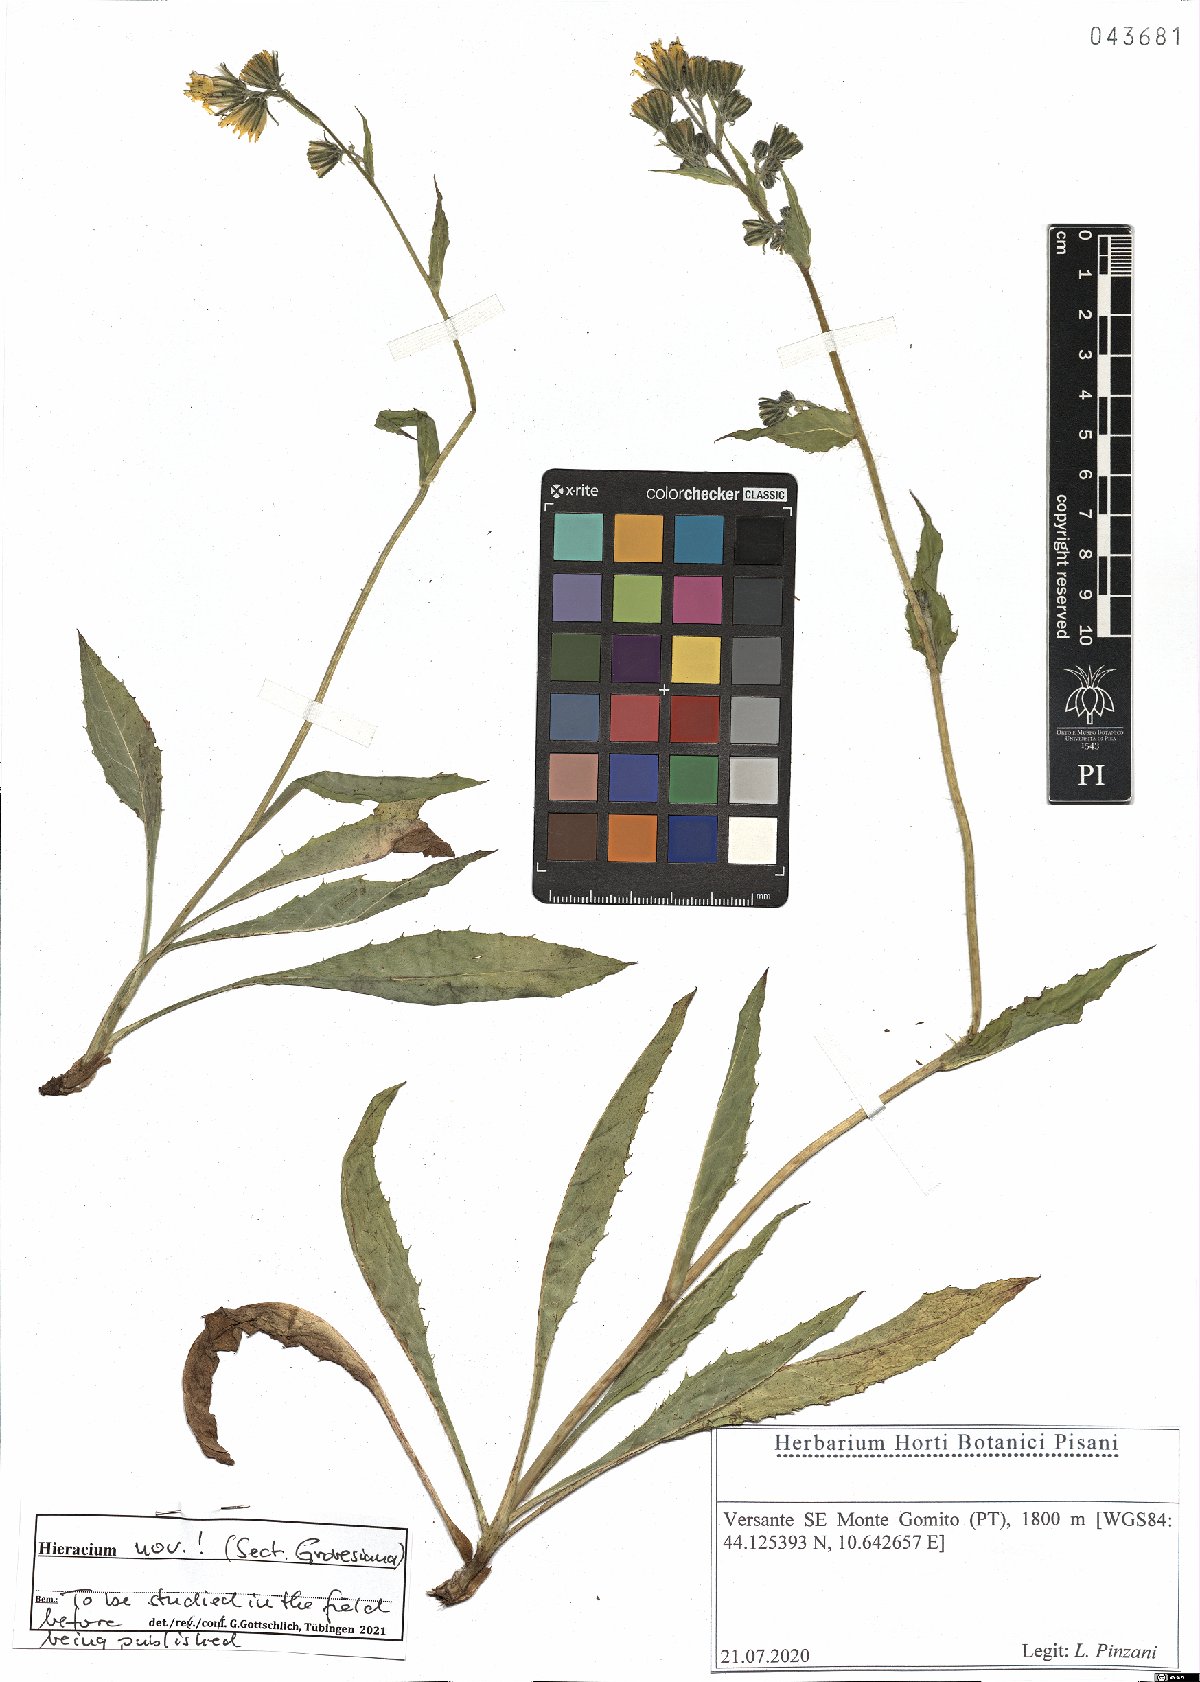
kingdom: Plantae
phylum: Tracheophyta
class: Magnoliopsida
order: Asterales
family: Asteraceae
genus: Hieracium
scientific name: Hieracium
